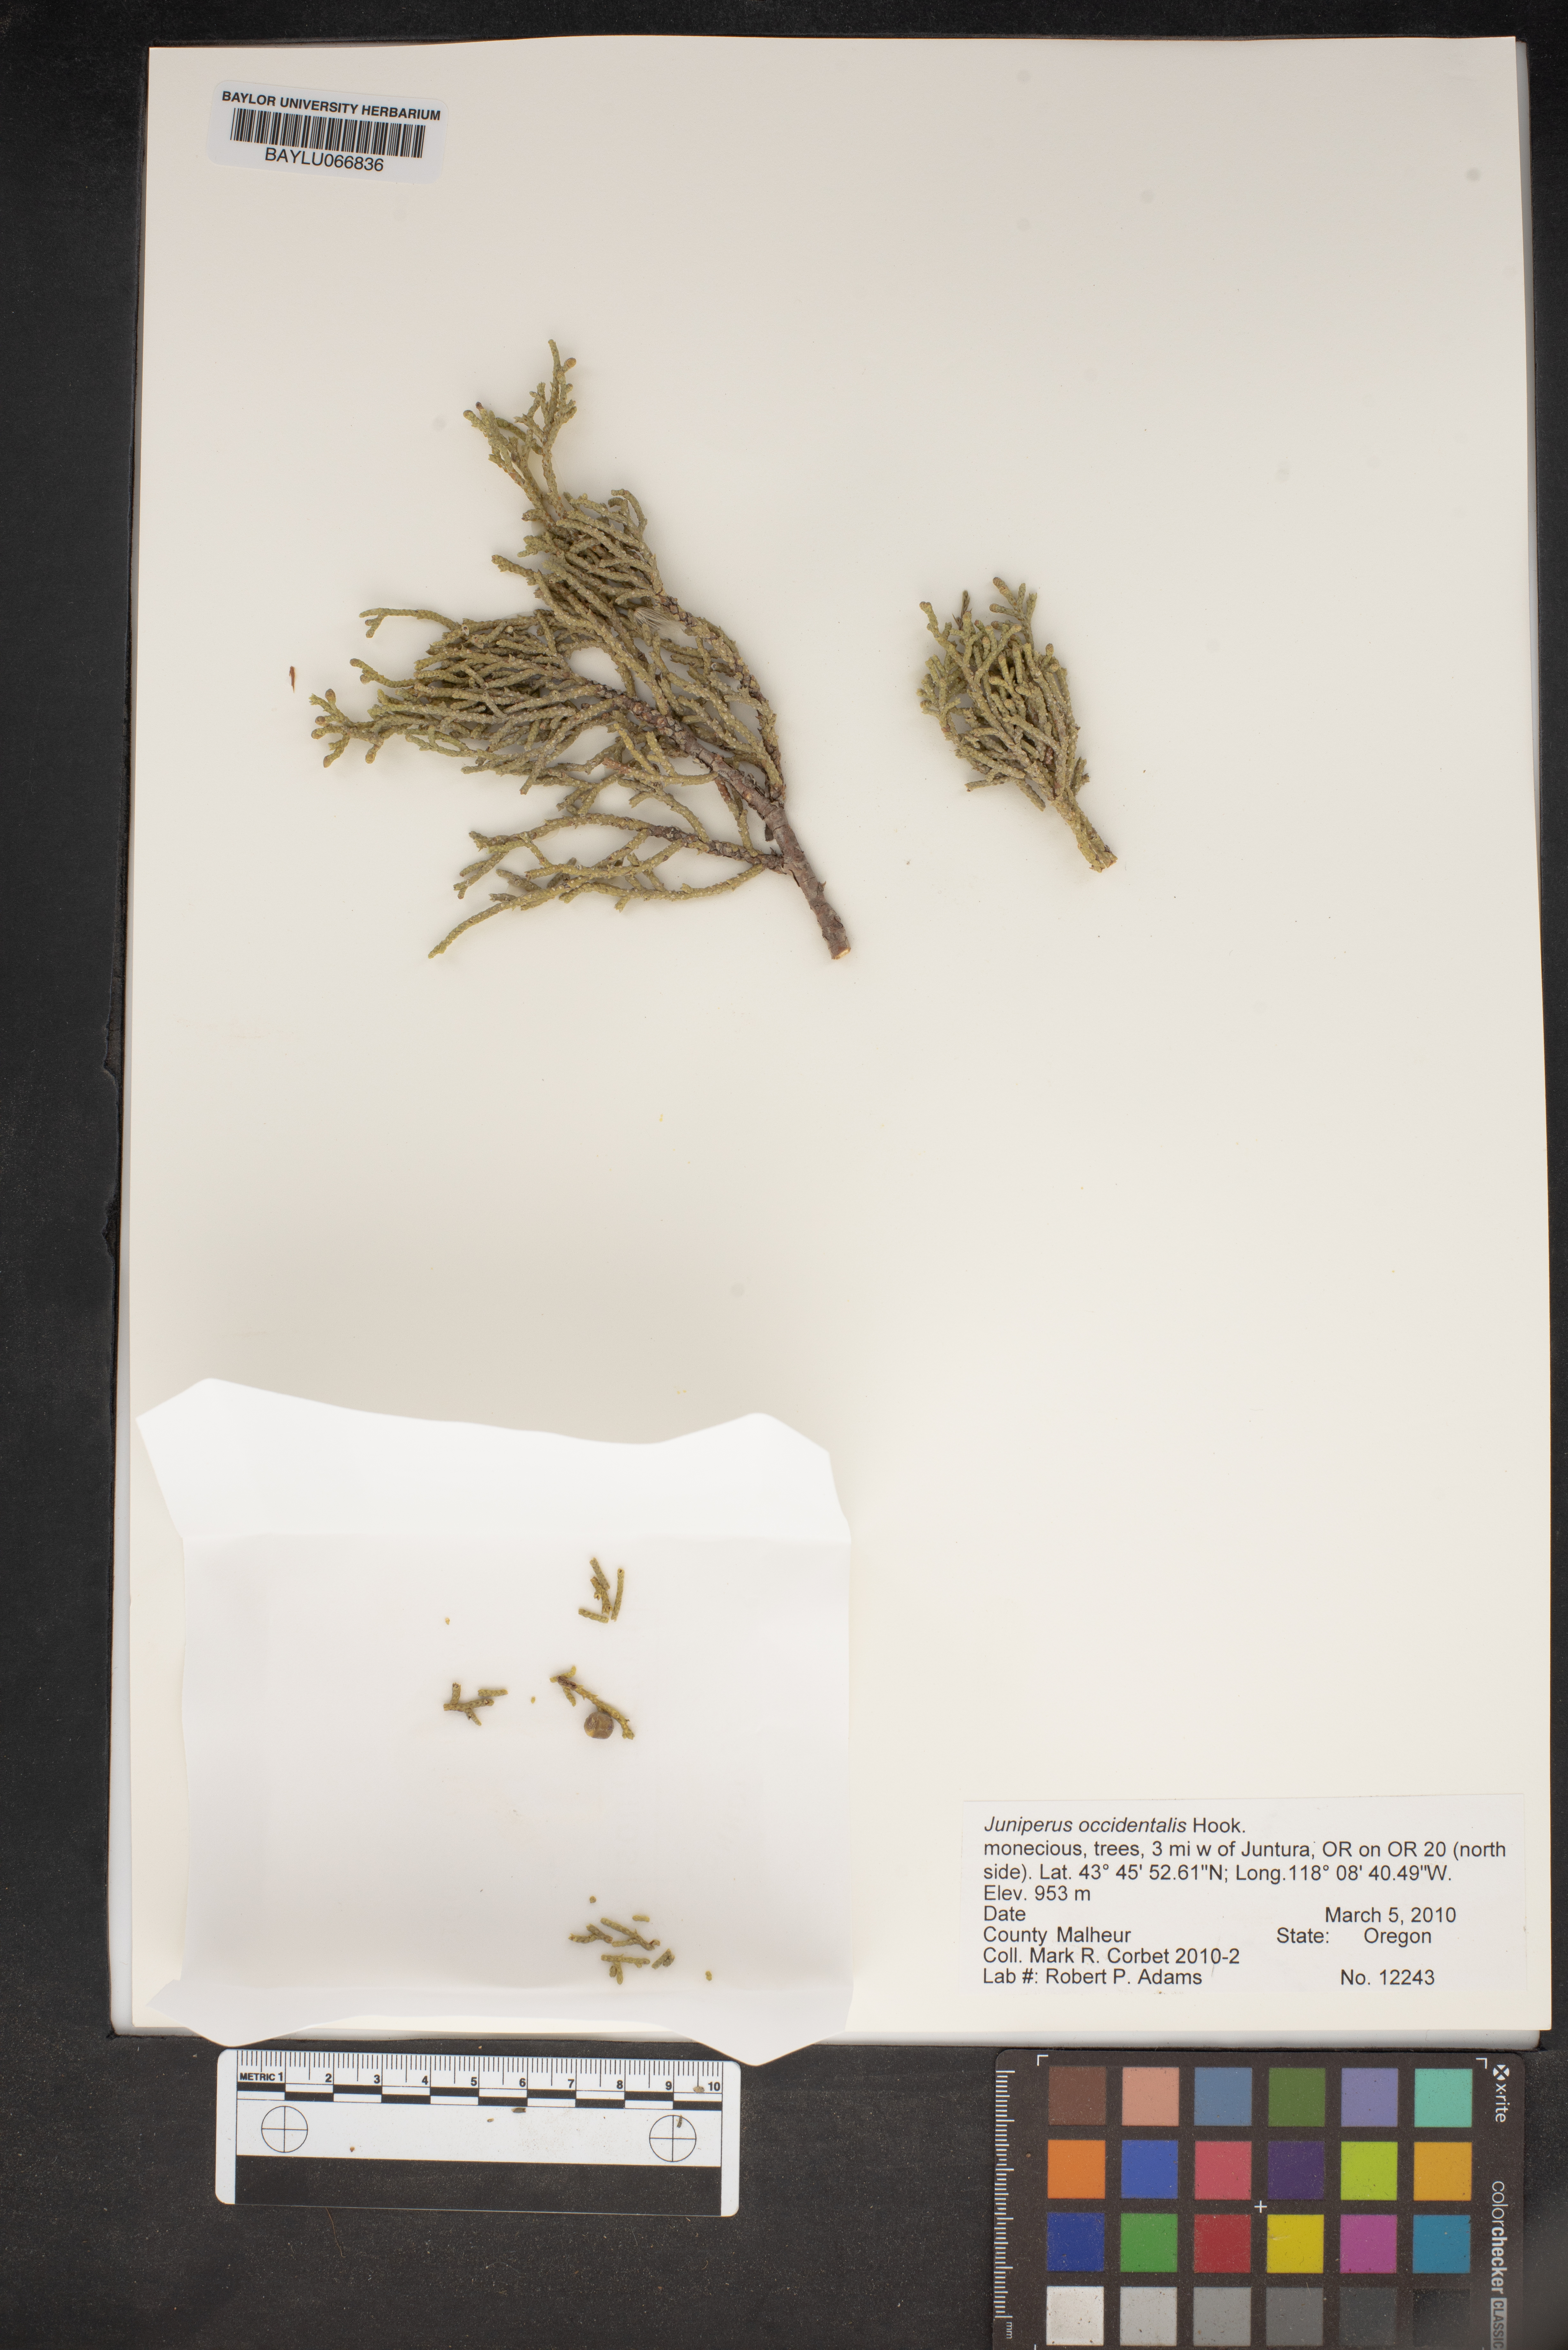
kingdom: Plantae
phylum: Tracheophyta
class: Pinopsida
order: Pinales
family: Cupressaceae
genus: Juniperus
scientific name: Juniperus occidentalis
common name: Western juniper
